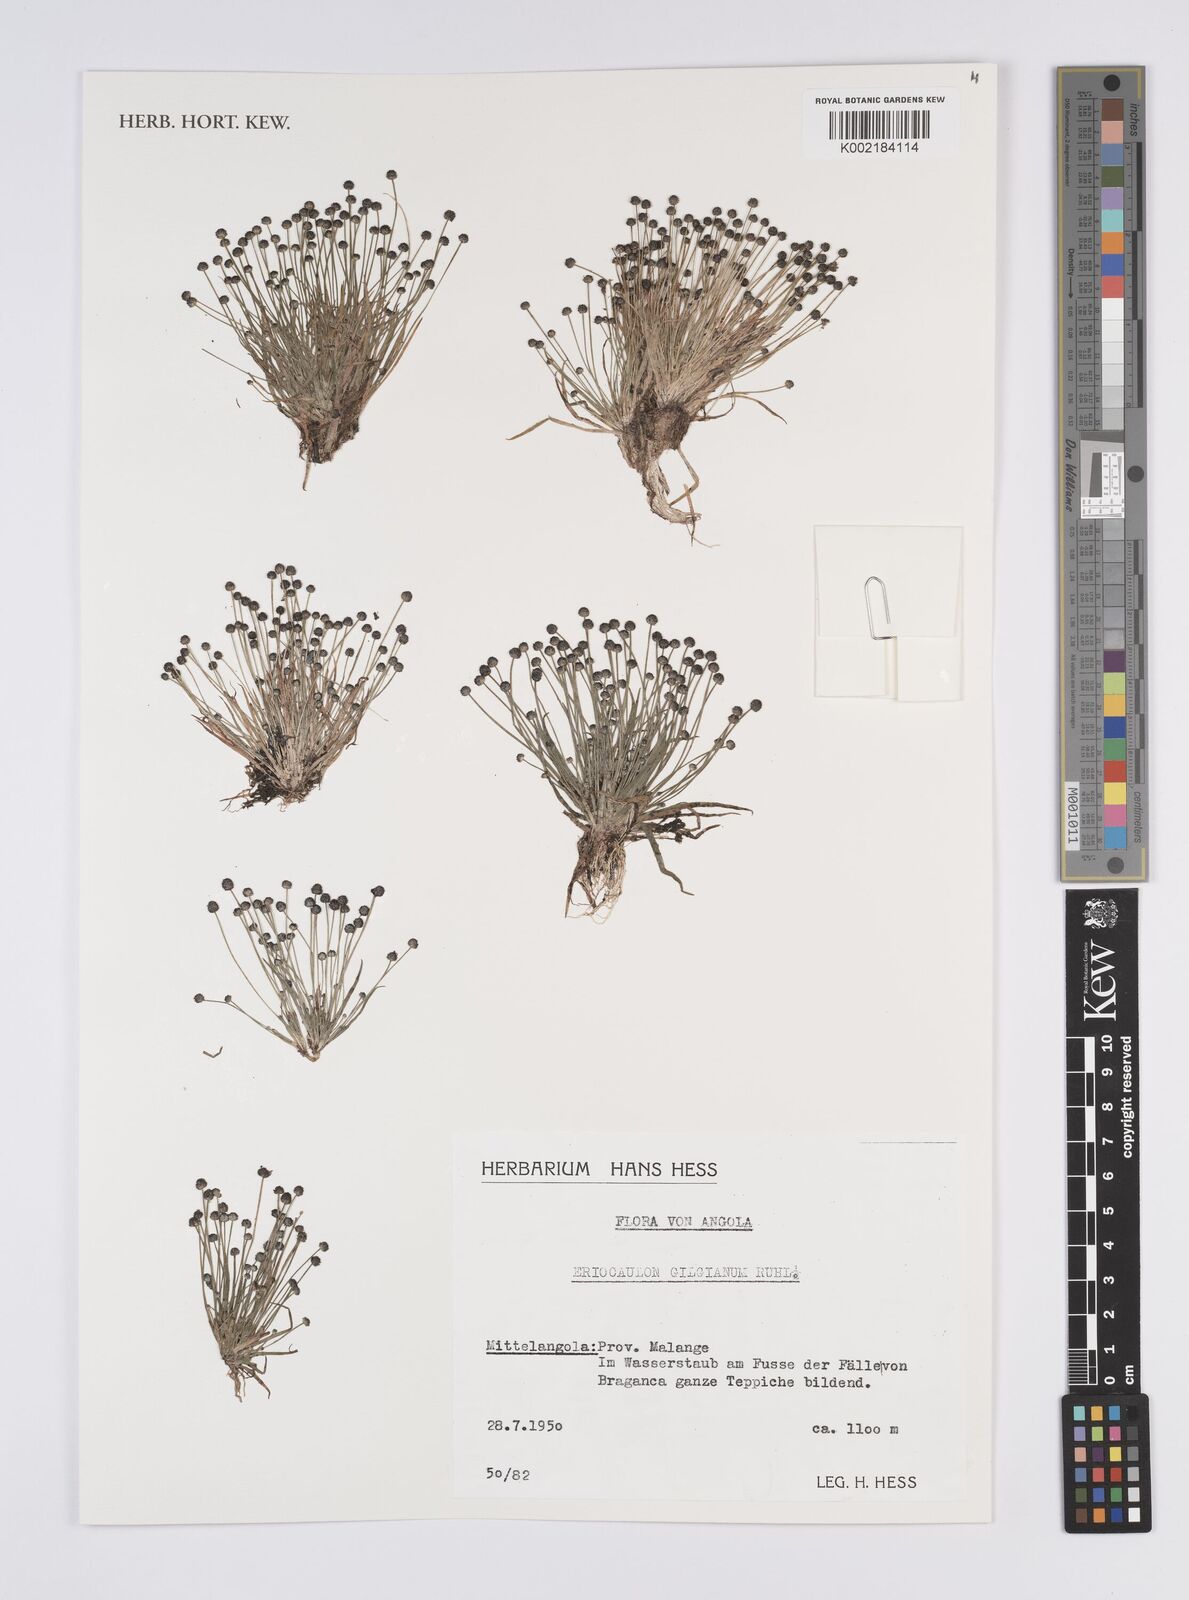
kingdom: Plantae
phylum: Tracheophyta
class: Liliopsida
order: Poales
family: Eriocaulaceae
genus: Eriocaulon
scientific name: Eriocaulon
